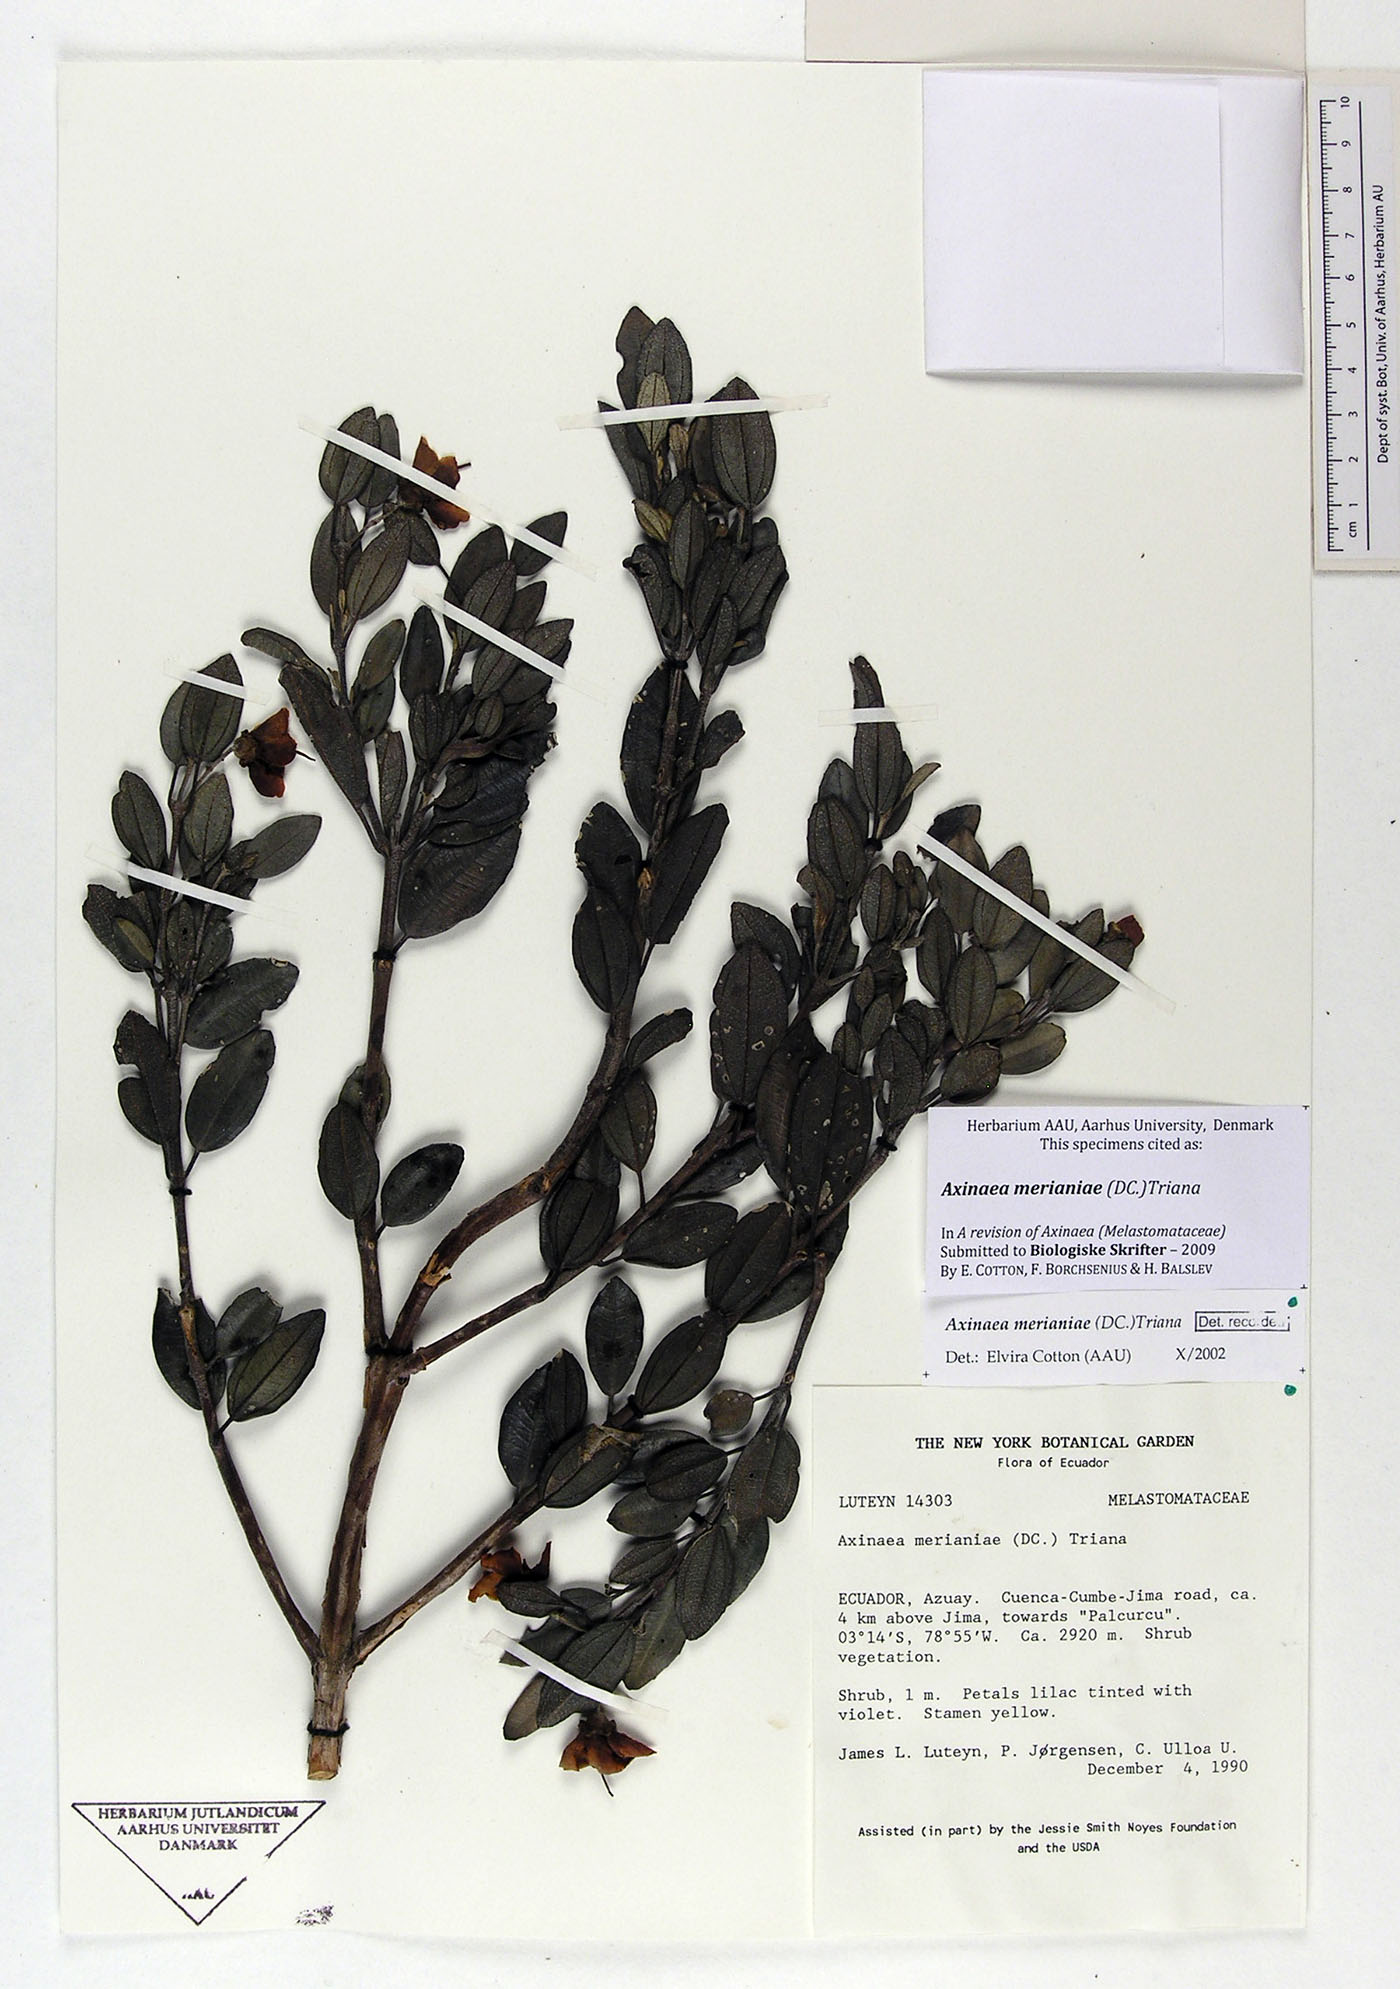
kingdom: Plantae
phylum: Tracheophyta
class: Magnoliopsida
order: Myrtales
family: Melastomataceae
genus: Axinaea
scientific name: Axinaea merianiae
